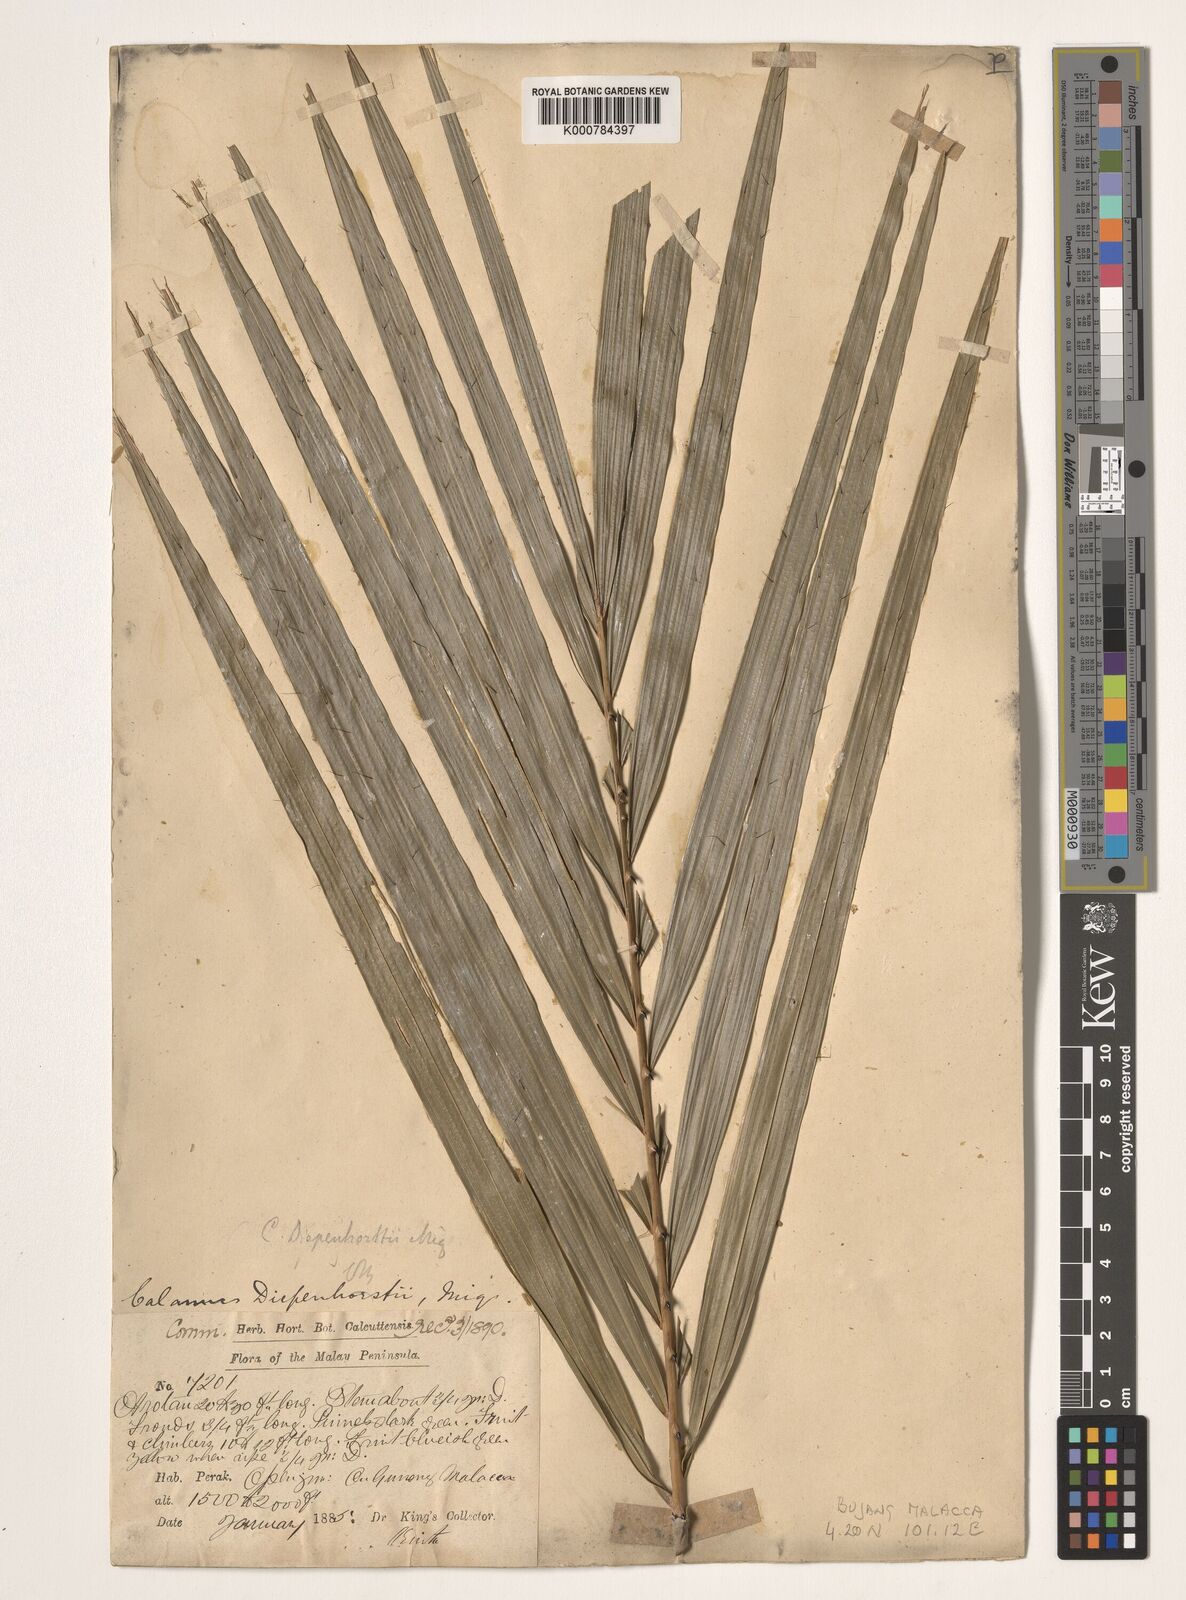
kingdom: Plantae
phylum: Tracheophyta
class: Liliopsida
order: Arecales
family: Arecaceae
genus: Calamus
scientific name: Calamus diepenhorstii
